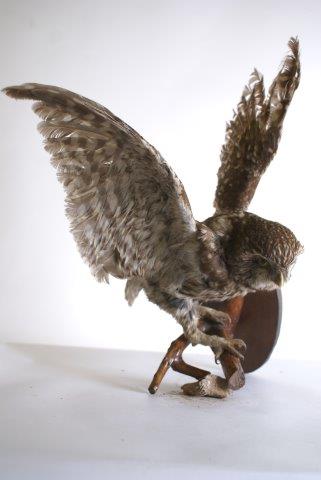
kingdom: Animalia
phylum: Chordata
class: Aves
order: Strigiformes
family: Strigidae
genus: Athene
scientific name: Athene noctua
